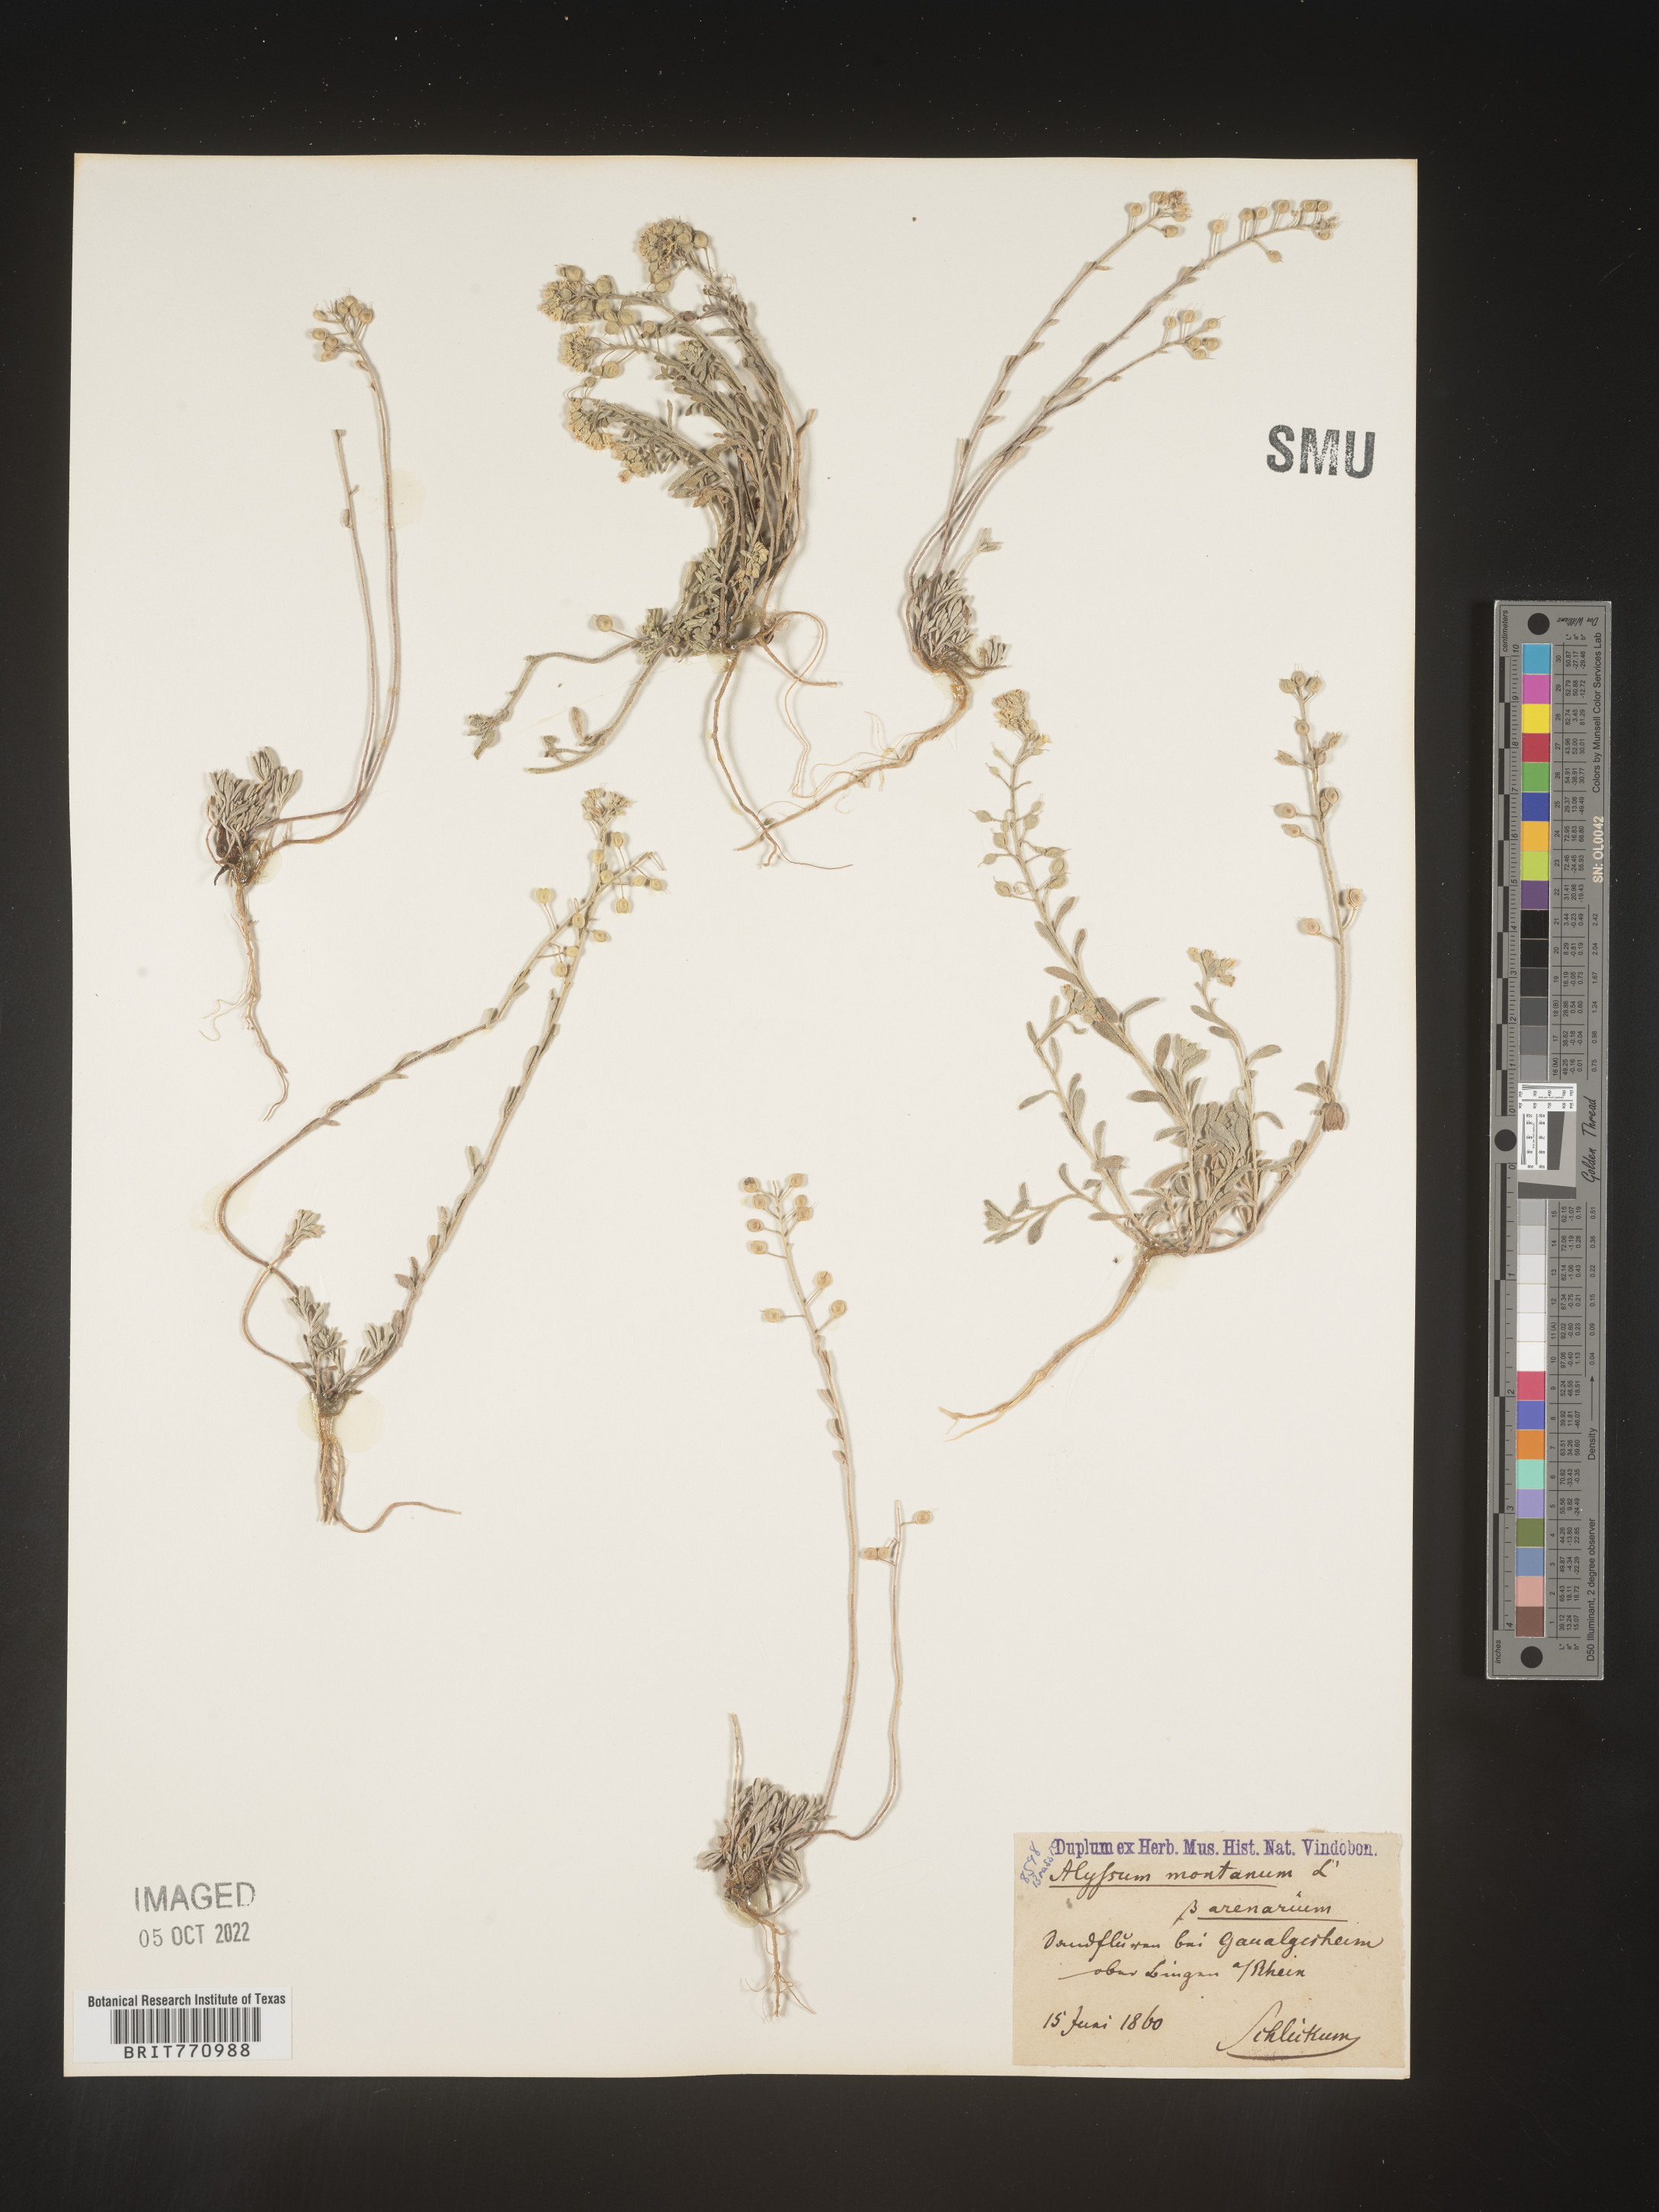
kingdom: Plantae
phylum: Tracheophyta
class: Magnoliopsida
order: Brassicales
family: Brassicaceae
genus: Alyssum
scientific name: Alyssum
